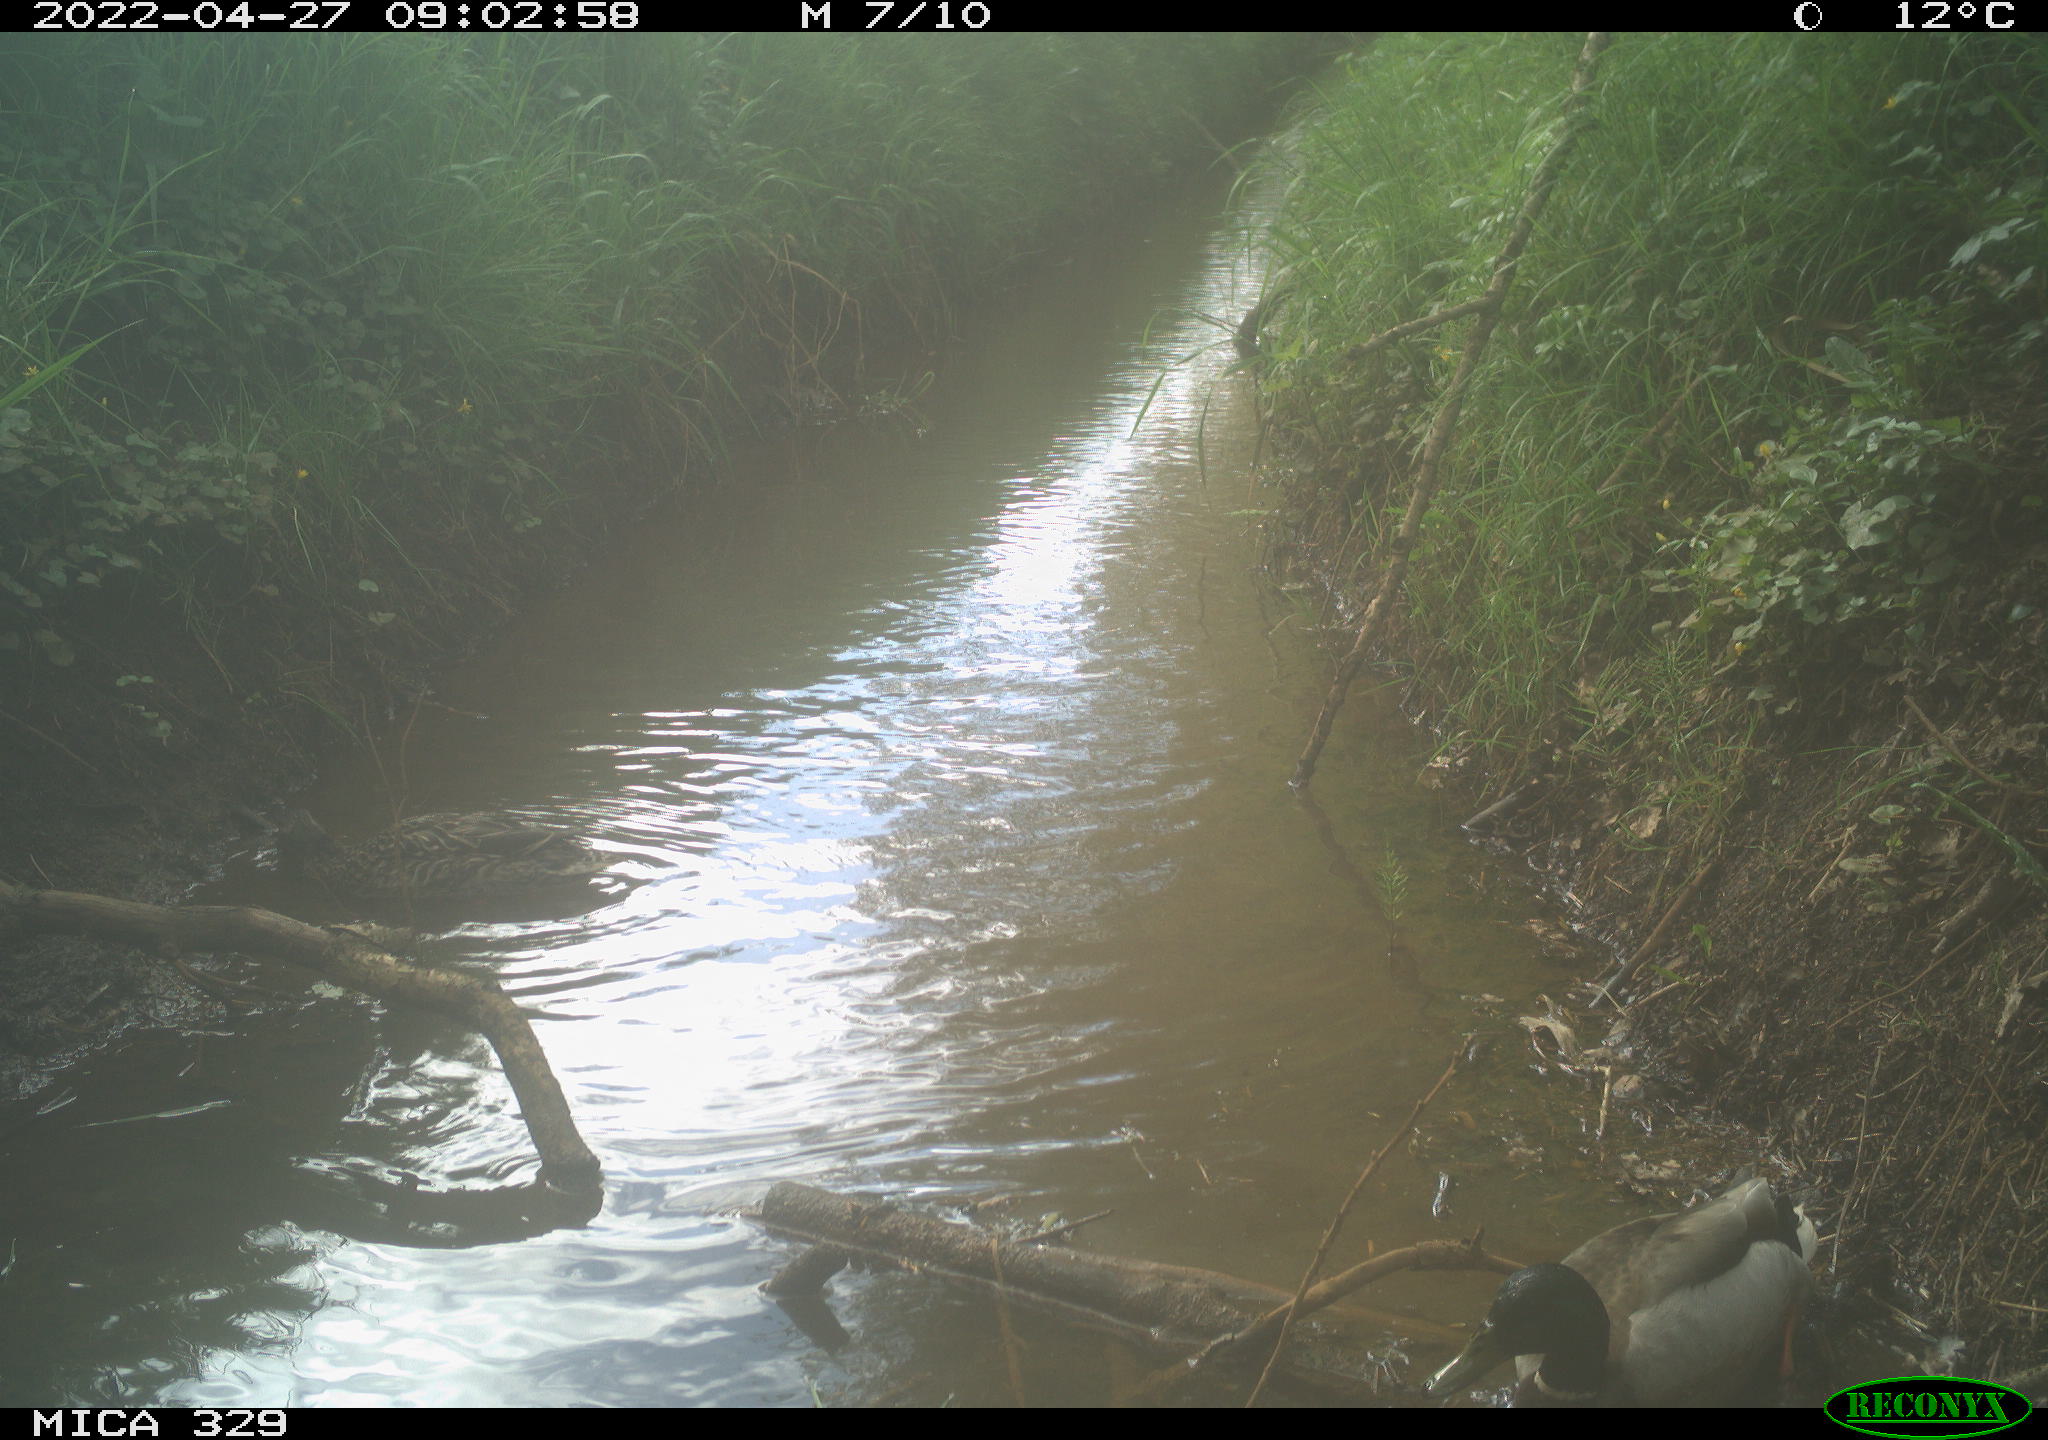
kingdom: Animalia
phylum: Chordata
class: Aves
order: Anseriformes
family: Anatidae
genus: Anas
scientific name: Anas platyrhynchos
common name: Mallard
